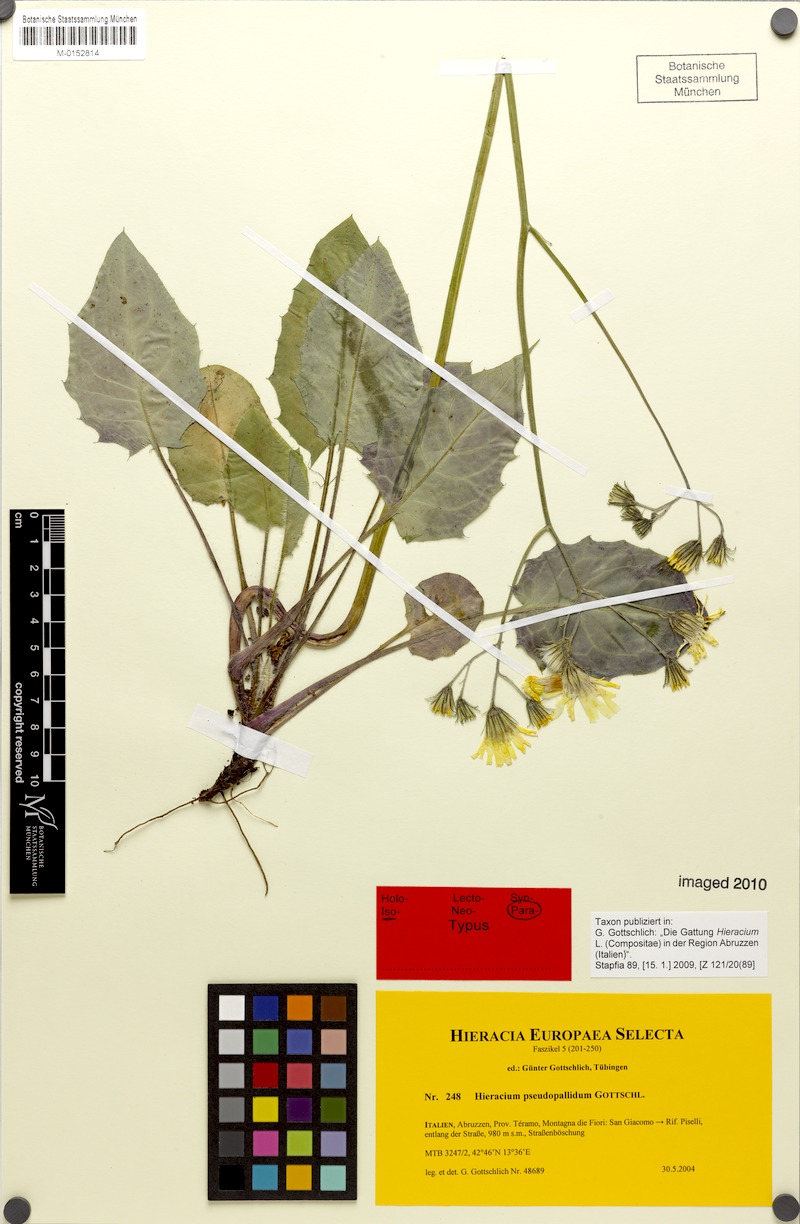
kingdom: Plantae
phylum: Tracheophyta
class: Magnoliopsida
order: Asterales
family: Asteraceae
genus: Hieracium
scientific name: Hieracium pseudopallidum
